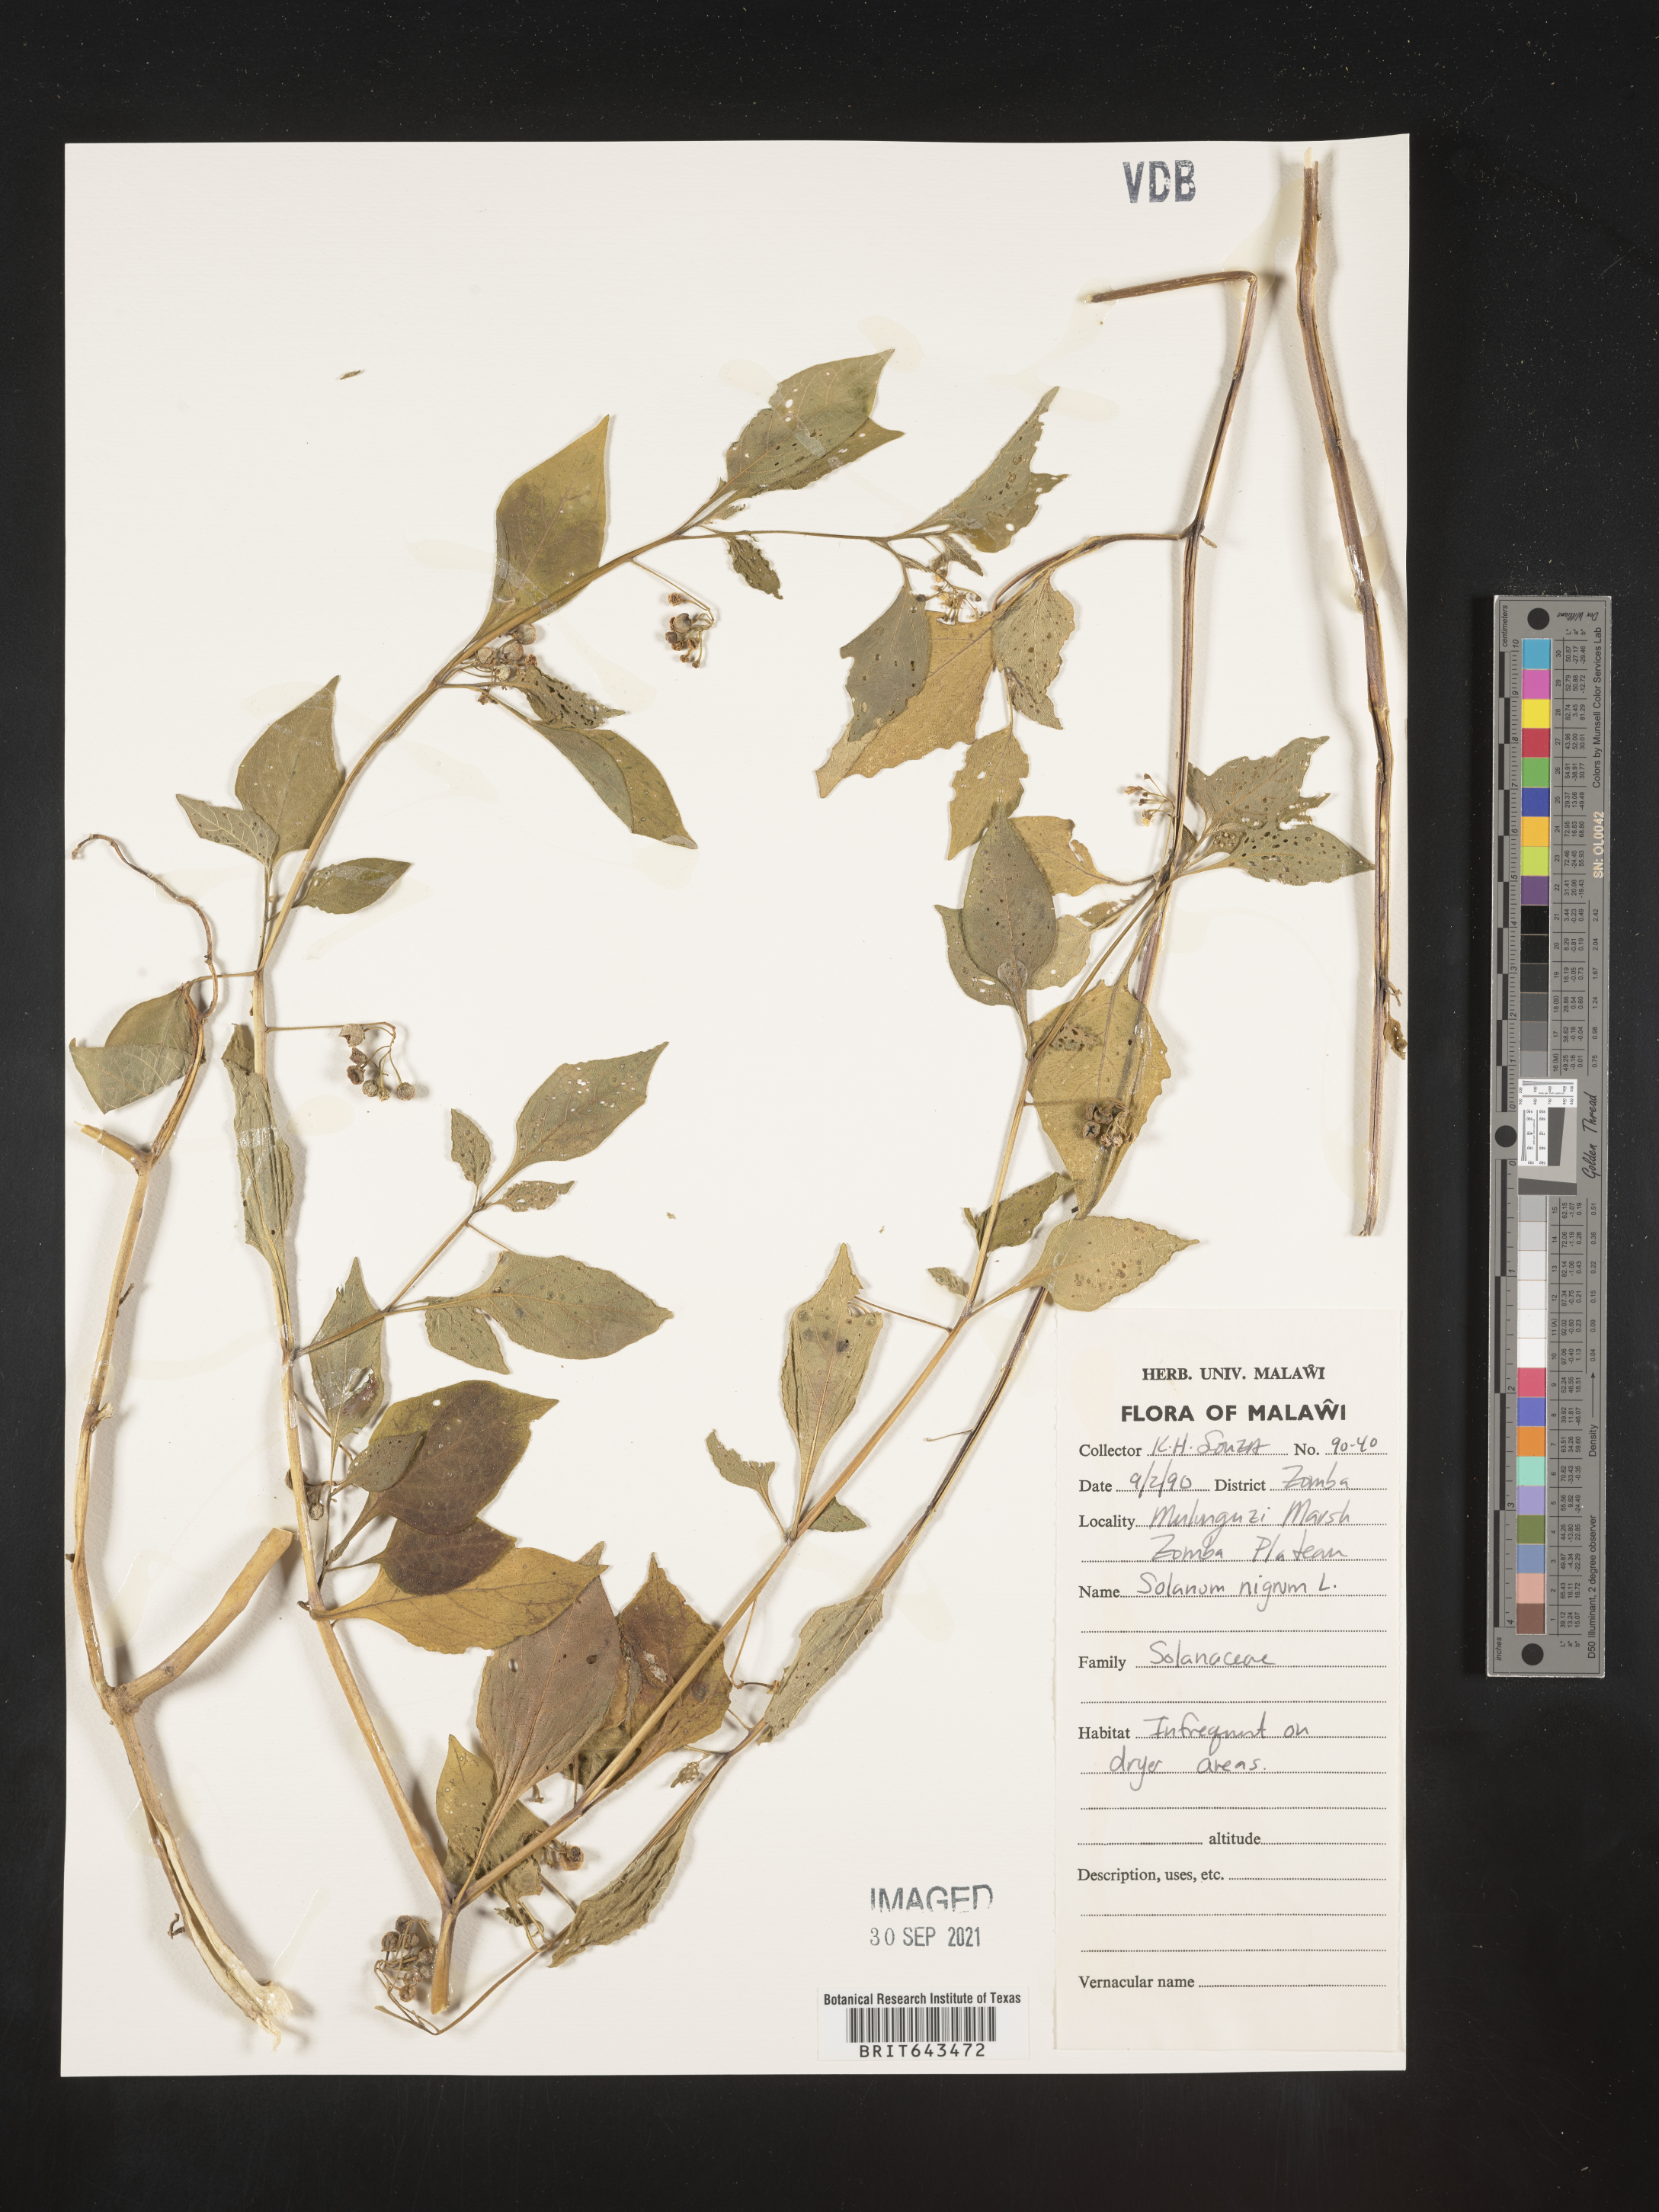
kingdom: Plantae
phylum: Tracheophyta
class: Magnoliopsida
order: Solanales
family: Solanaceae
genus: Solanum
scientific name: Solanum
